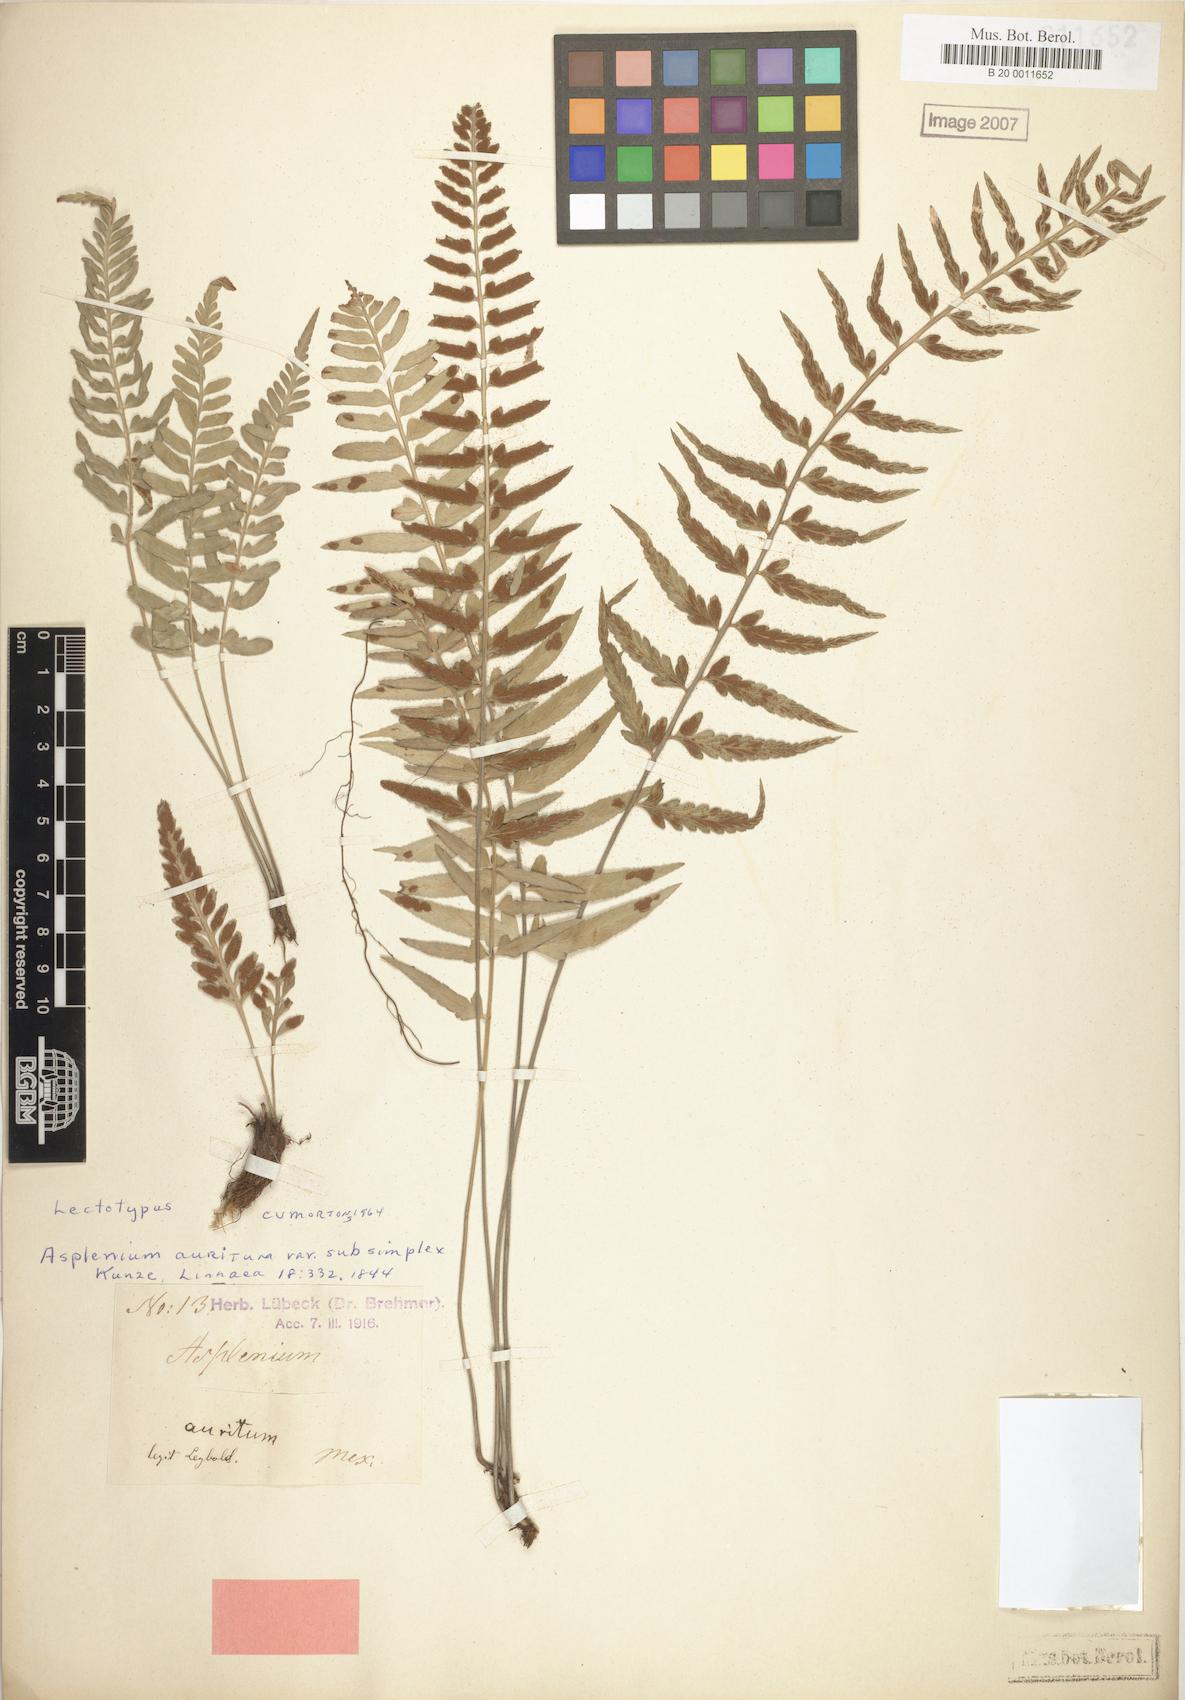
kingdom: Plantae
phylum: Tracheophyta
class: Polypodiopsida
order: Polypodiales
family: Aspleniaceae
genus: Asplenium
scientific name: Asplenium auritum
